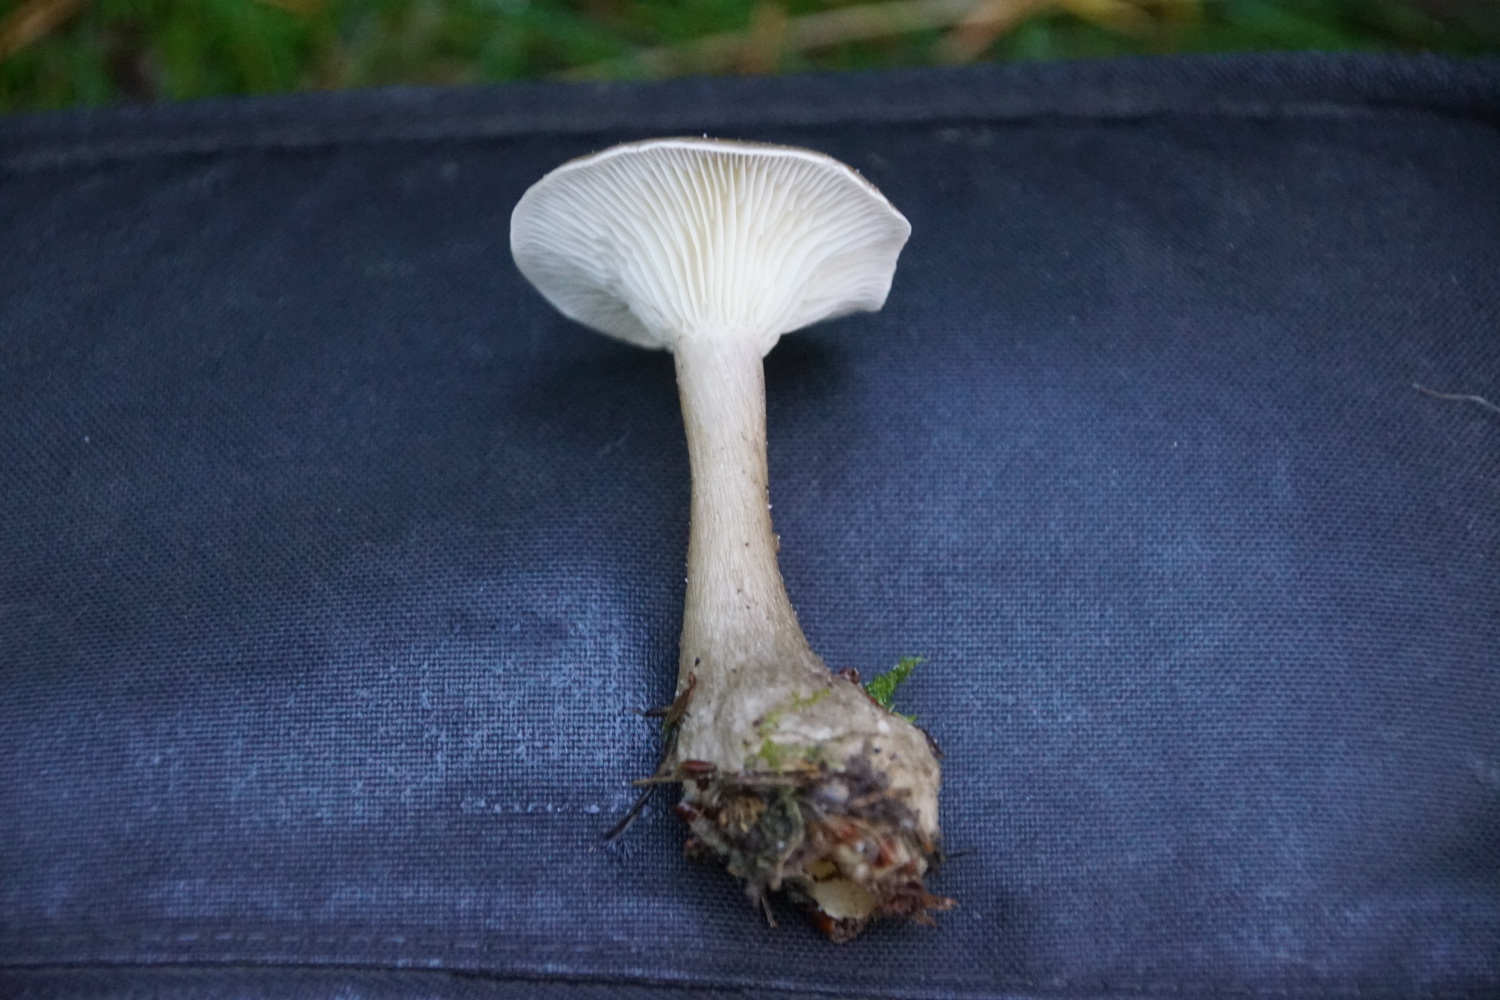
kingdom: Fungi
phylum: Basidiomycota
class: Agaricomycetes
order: Agaricales
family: Hygrophoraceae
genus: Ampulloclitocybe
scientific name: Ampulloclitocybe clavipes
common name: køllefod
